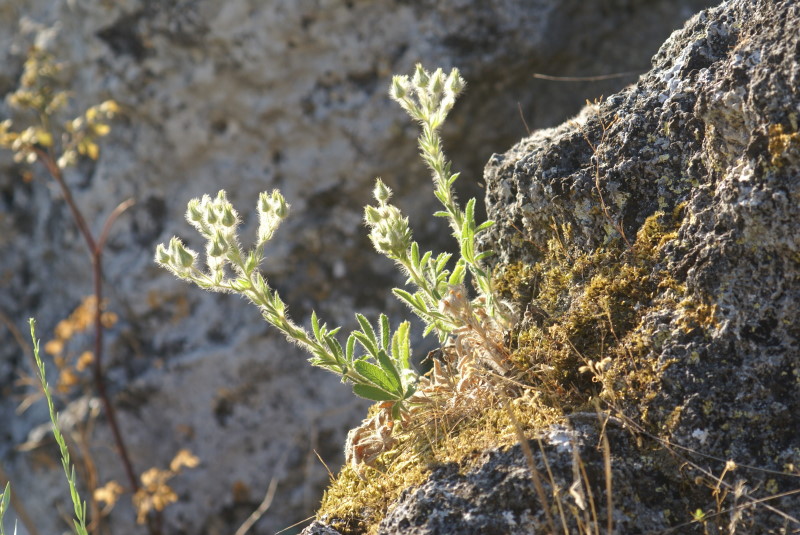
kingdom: Plantae
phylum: Tracheophyta
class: Magnoliopsida
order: Rosales
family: Rosaceae
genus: Potentilla
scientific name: Potentilla
